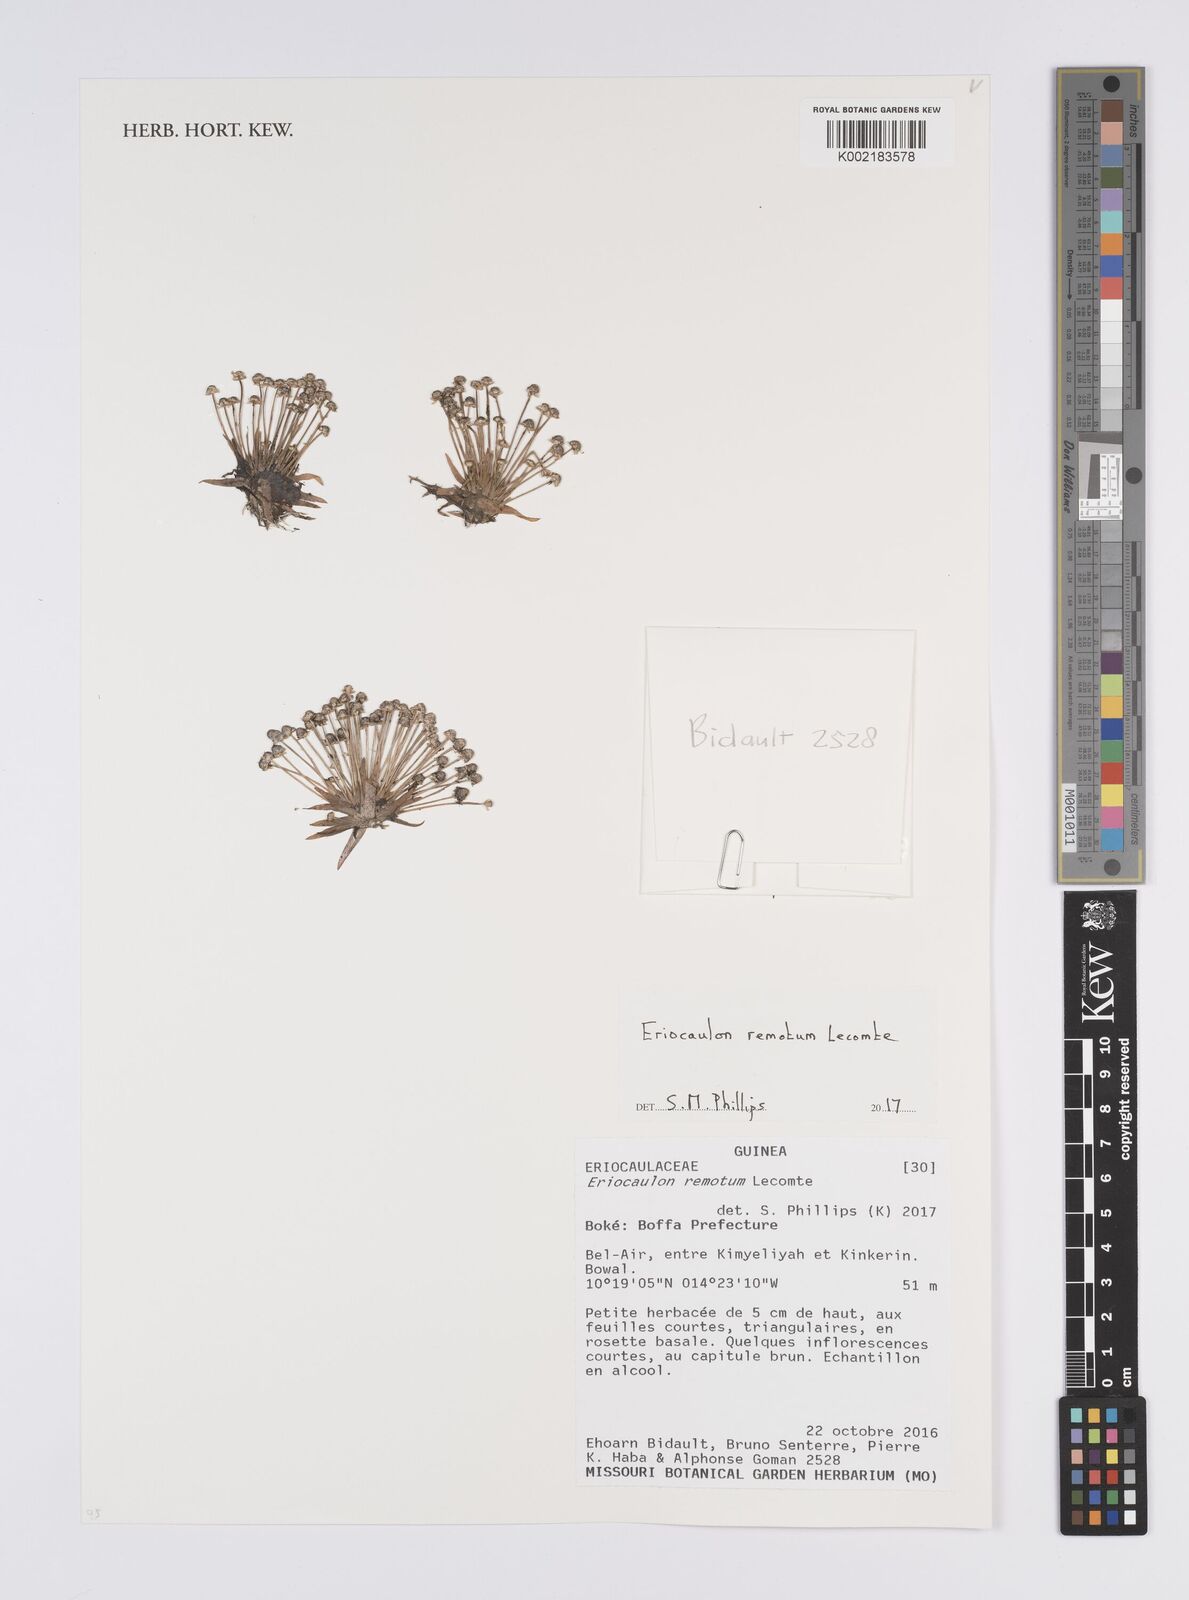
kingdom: Plantae
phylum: Tracheophyta
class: Liliopsida
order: Poales
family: Eriocaulaceae
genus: Eriocaulon
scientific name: Eriocaulon remotum
